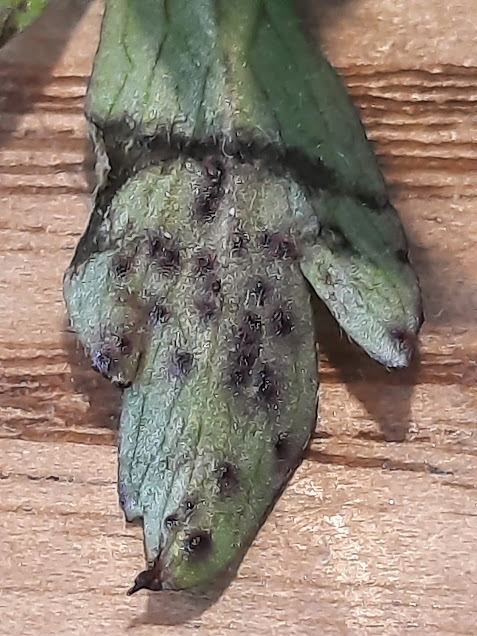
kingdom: Fungi
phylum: Chytridiomycota
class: Chytridiomycetes
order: Chytridiales
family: Synchytriaceae
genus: Synchytrium
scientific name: Synchytrium anemones
